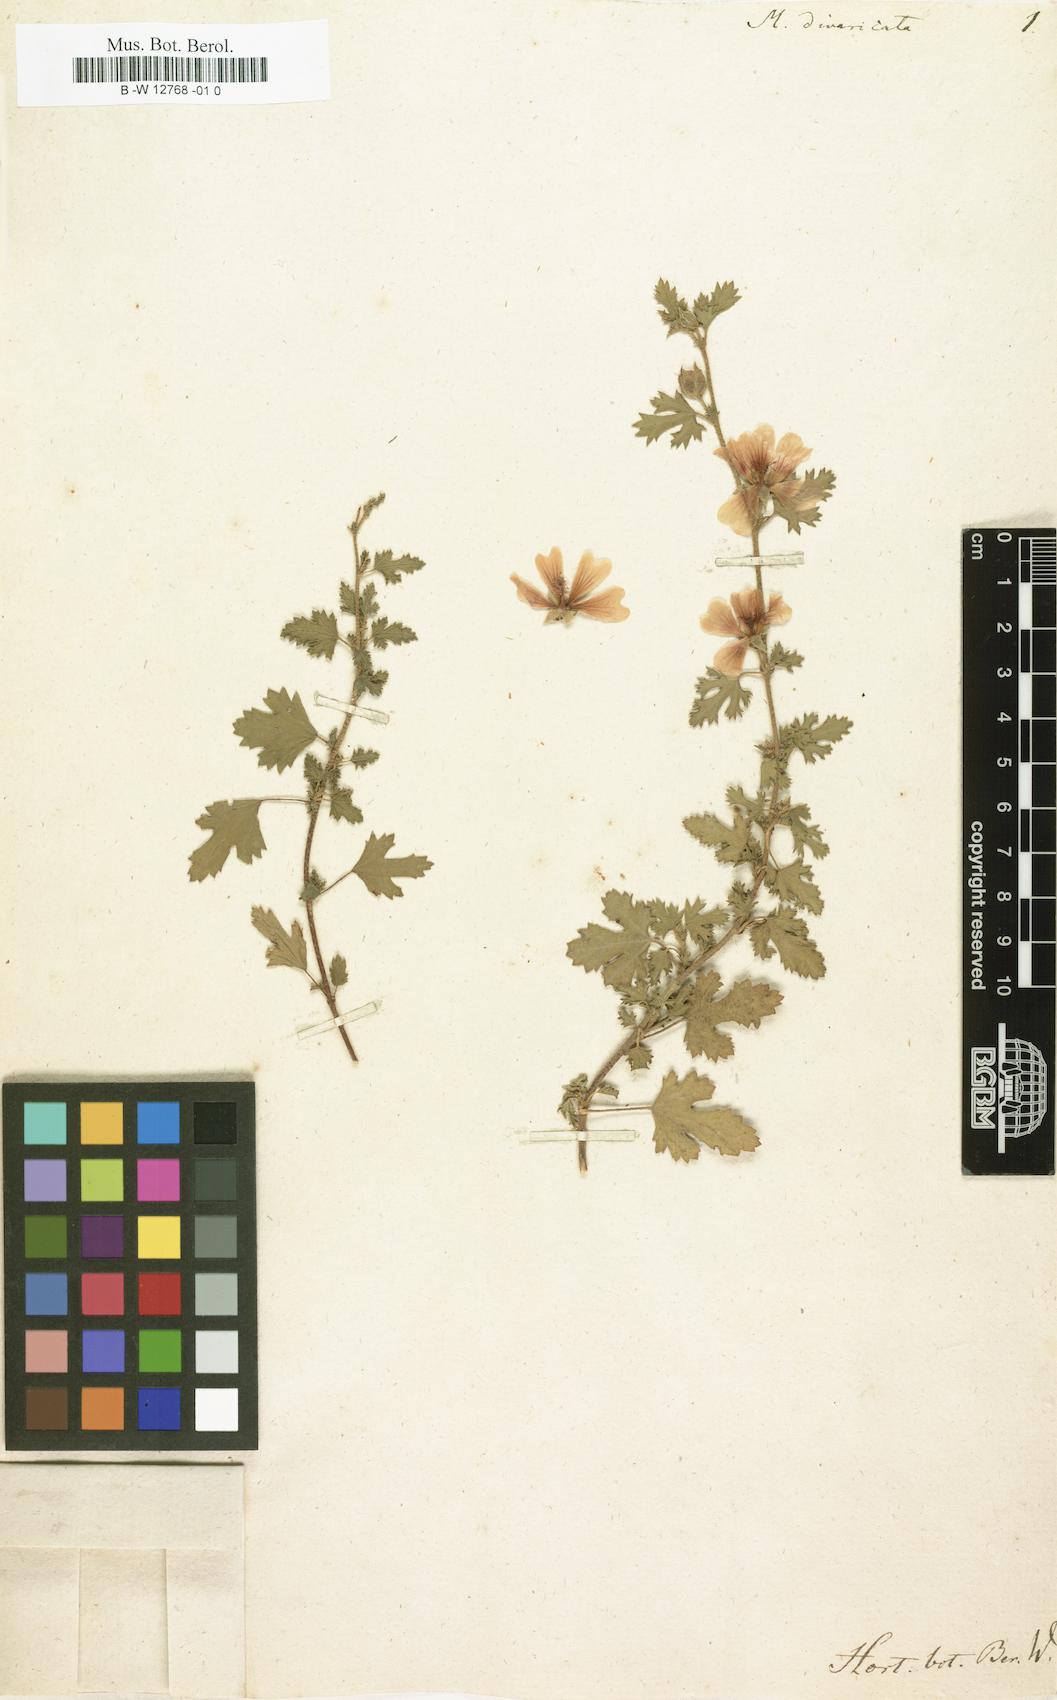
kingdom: Plantae
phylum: Tracheophyta
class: Magnoliopsida
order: Malvales
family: Malvaceae
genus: Anisodontea
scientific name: Anisodontea
